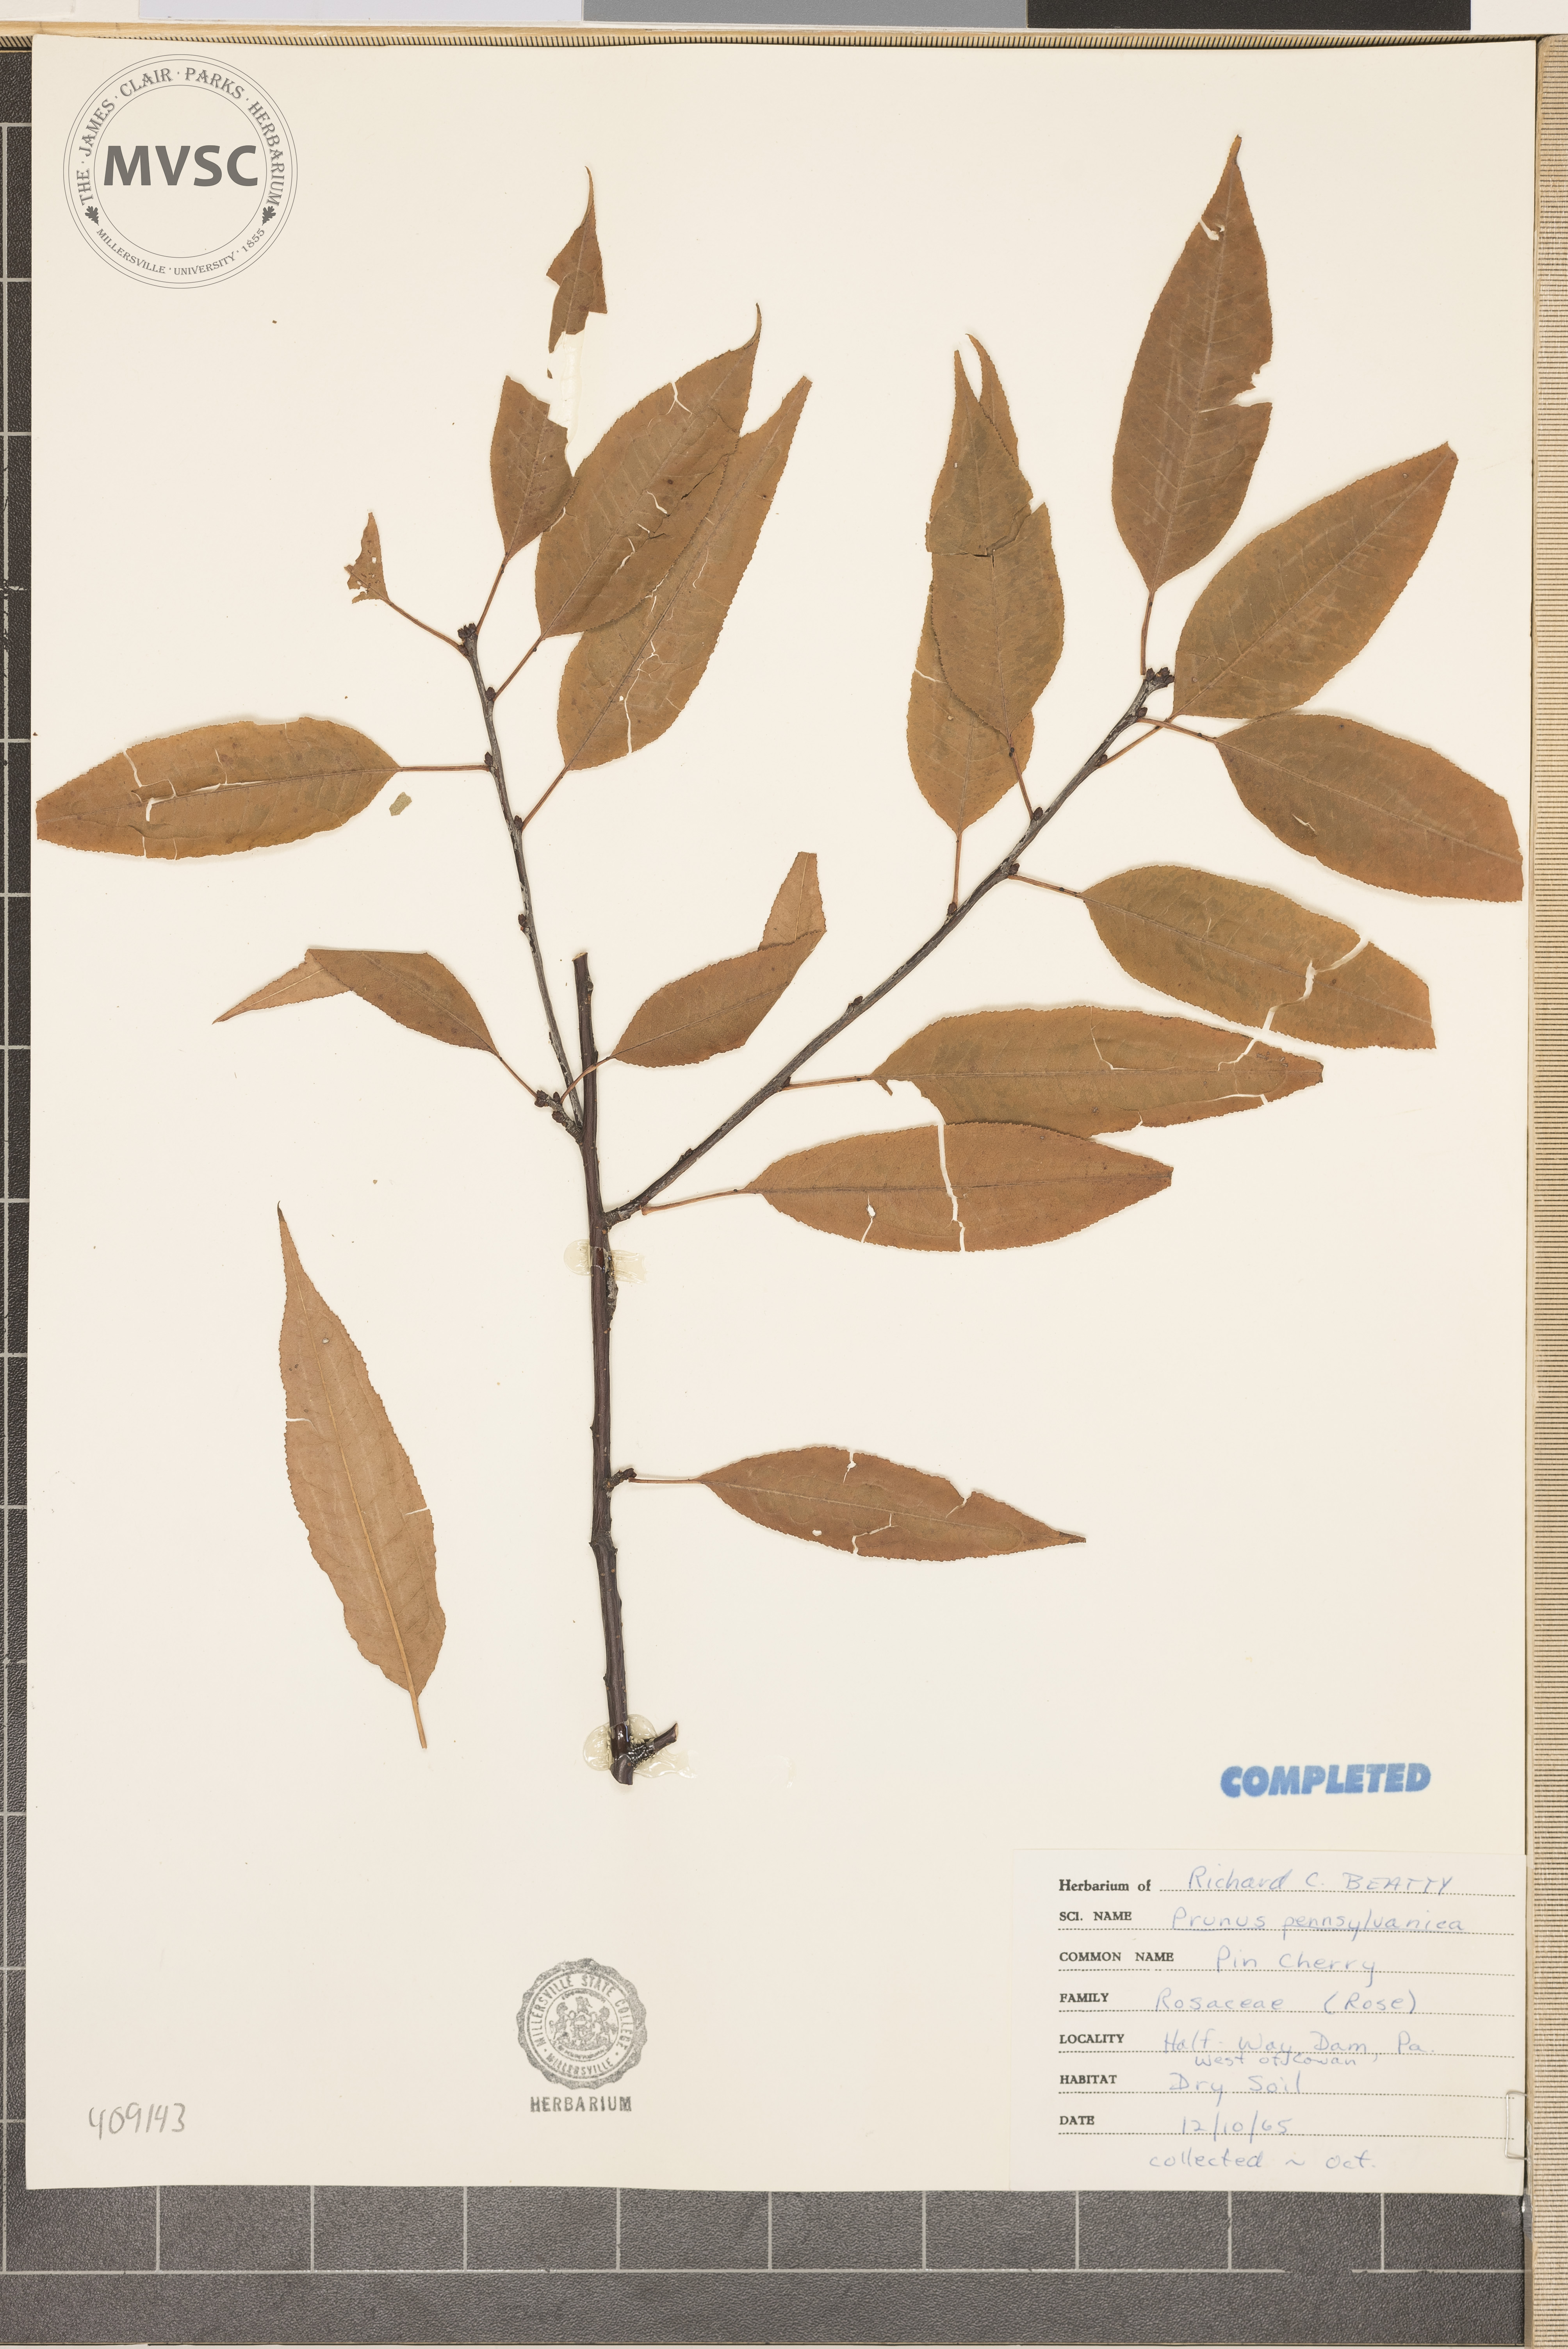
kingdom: Plantae
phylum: Tracheophyta
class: Magnoliopsida
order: Rosales
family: Rosaceae
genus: Prunus
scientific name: Prunus pensylvanica
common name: Pin cherry
